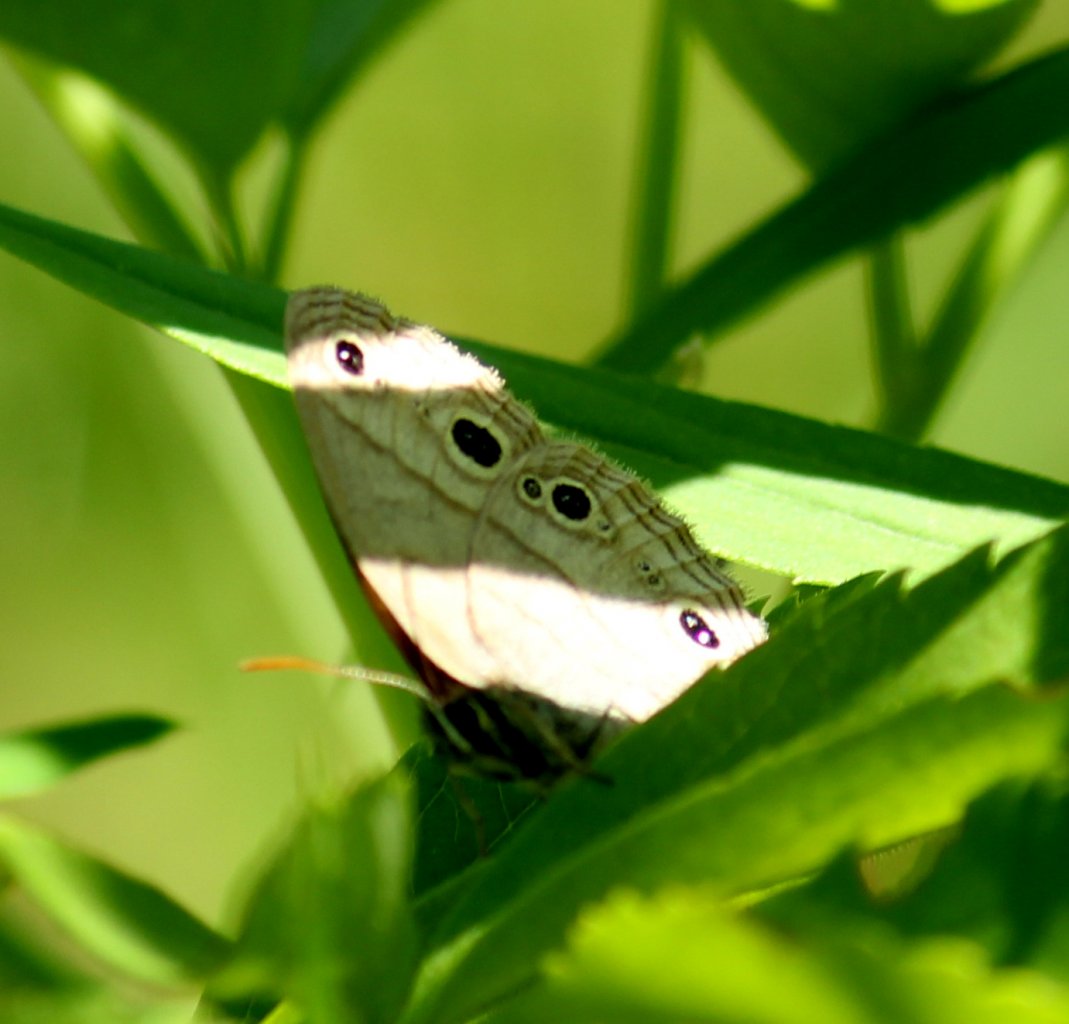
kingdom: Animalia
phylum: Arthropoda
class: Insecta
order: Lepidoptera
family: Nymphalidae
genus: Euptychia
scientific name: Euptychia cymela
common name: Little Wood Satyr
